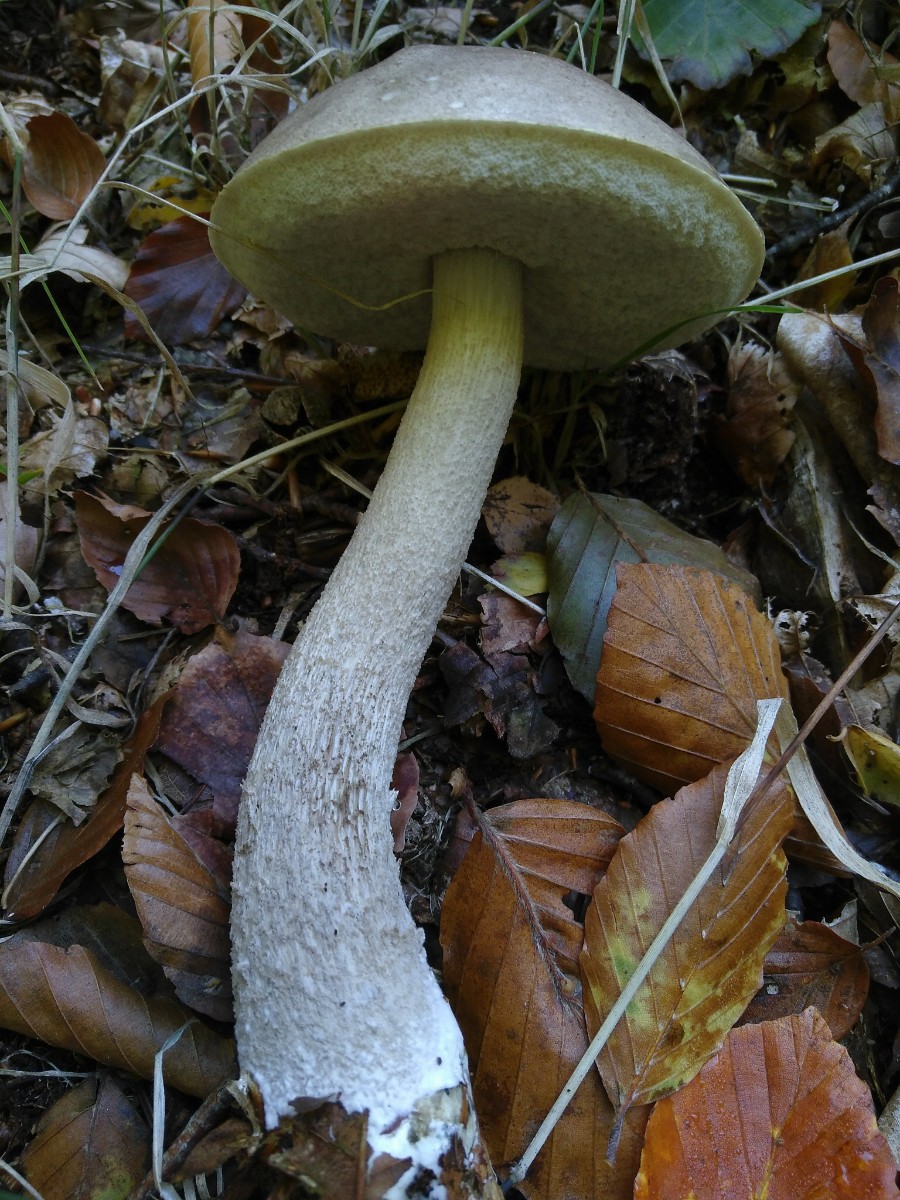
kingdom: Fungi
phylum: Basidiomycota
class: Agaricomycetes
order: Boletales
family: Boletaceae
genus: Leccinum
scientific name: Leccinum
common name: skælrørhat
